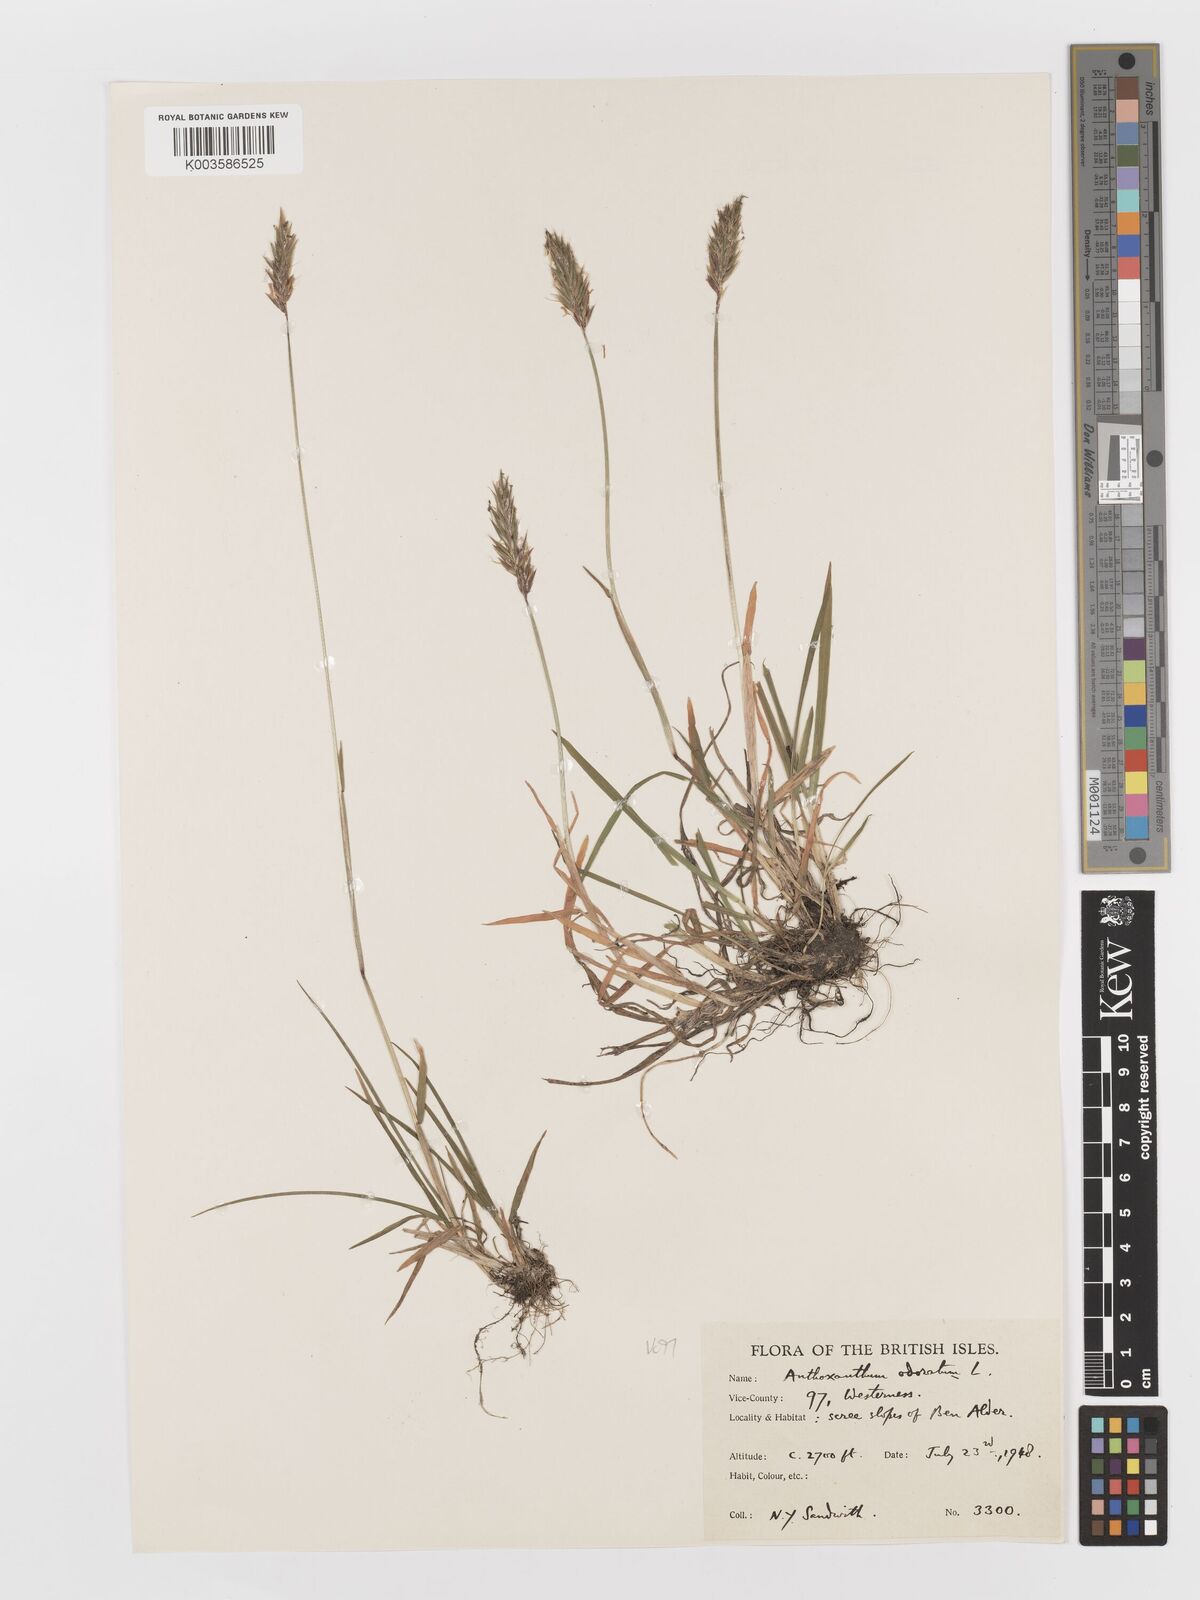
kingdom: Plantae
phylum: Tracheophyta
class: Liliopsida
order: Poales
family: Poaceae
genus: Anthoxanthum
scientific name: Anthoxanthum odoratum
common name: Sweet vernalgrass
